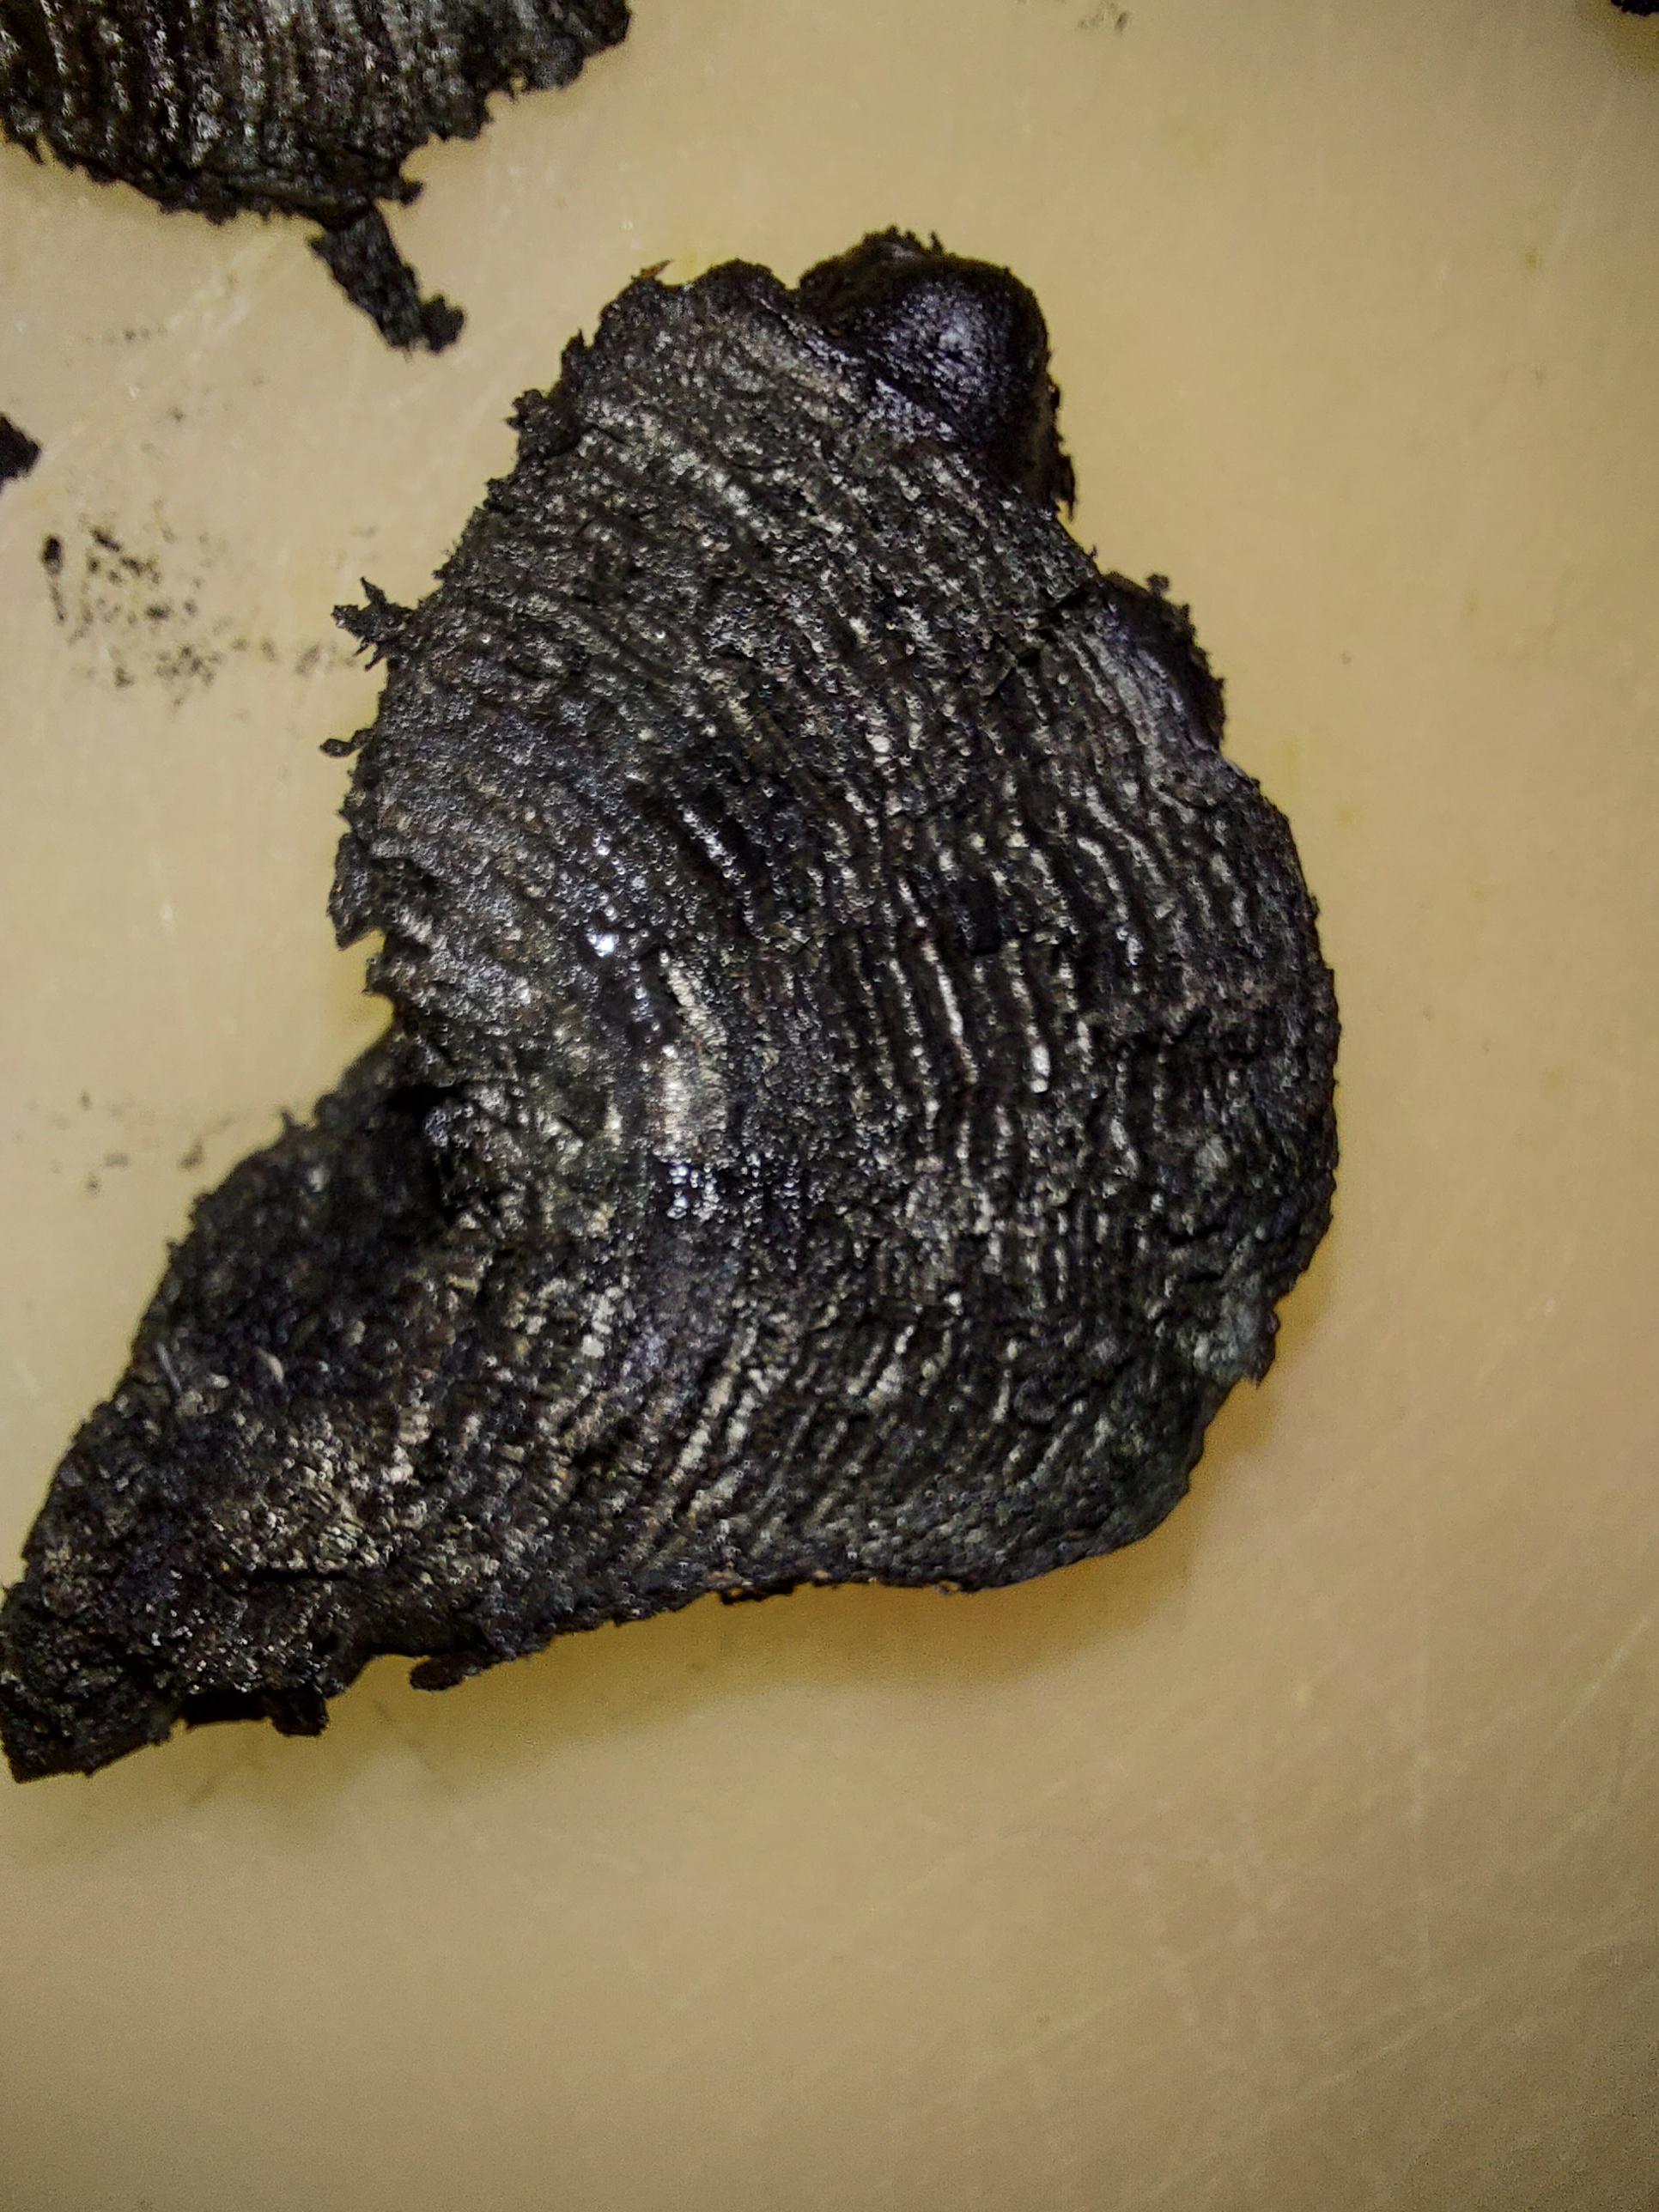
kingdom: Fungi
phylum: Ascomycota
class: Sordariomycetes
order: Xylariales
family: Hypoxylaceae
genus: Daldinia
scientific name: Daldinia loculata
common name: brand-bæltekugle
